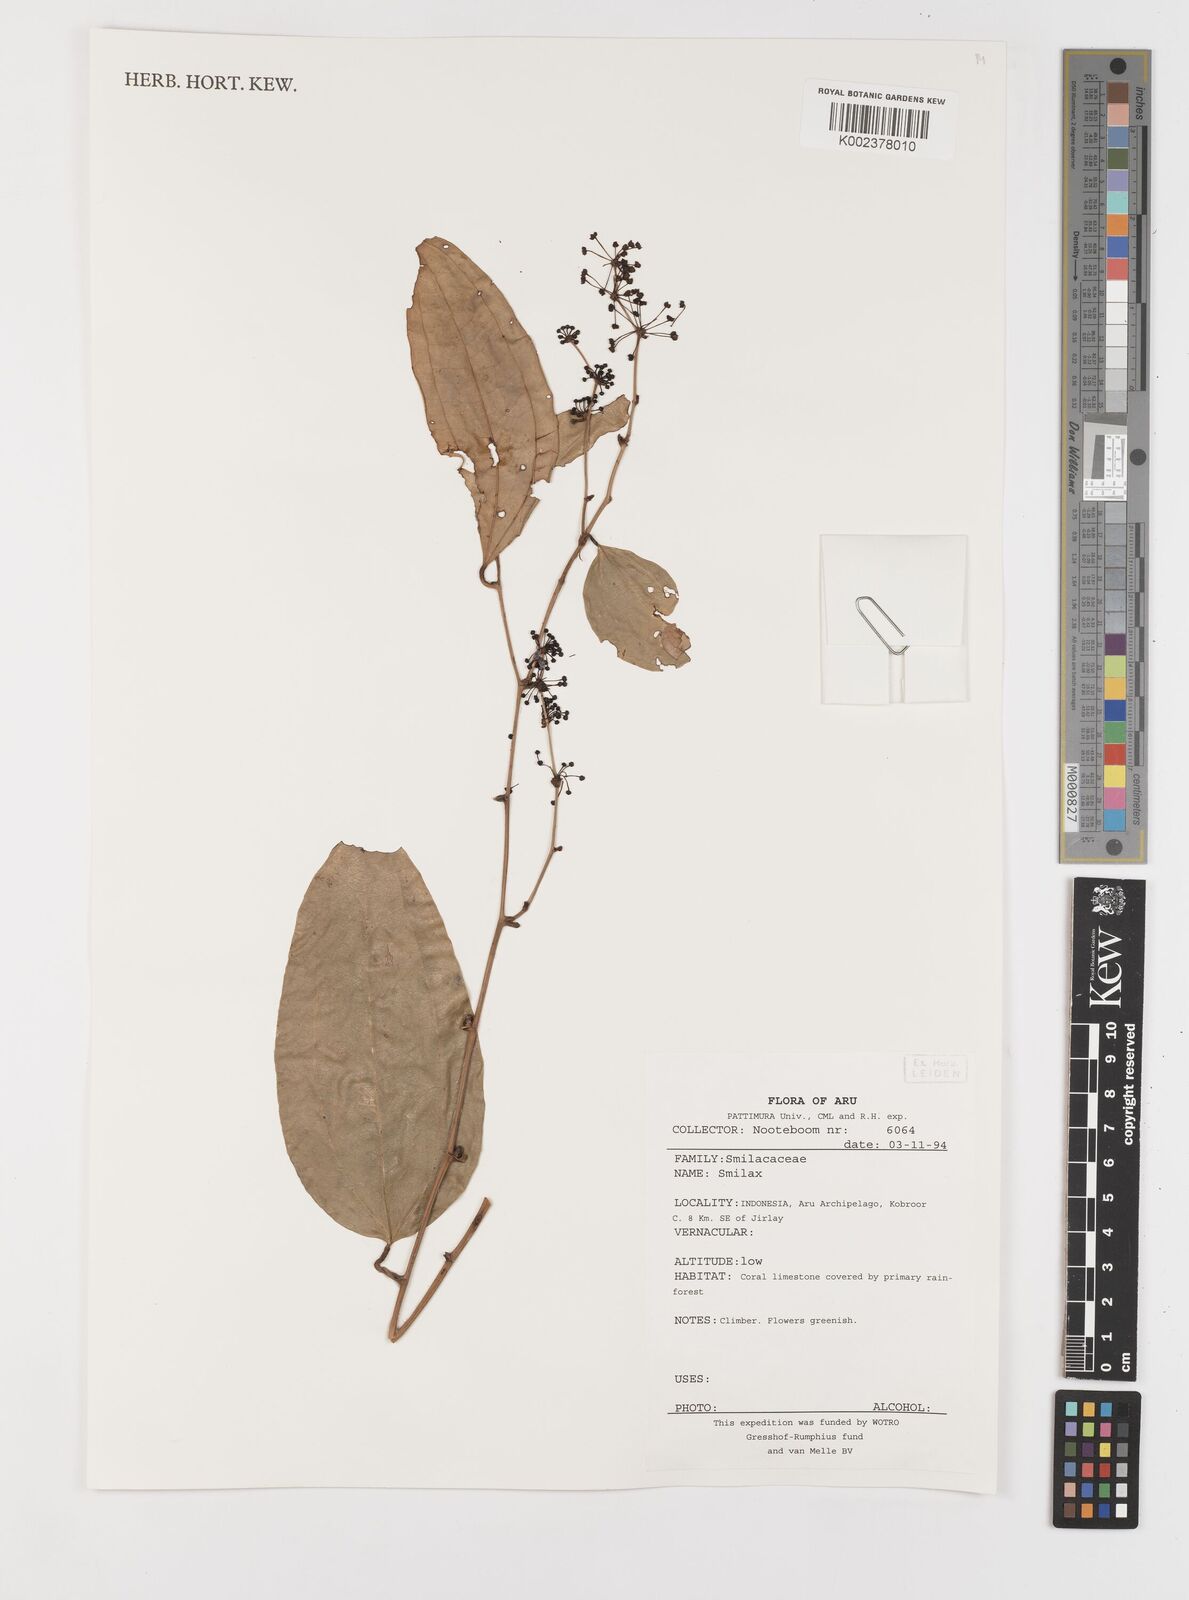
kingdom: Plantae
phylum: Tracheophyta
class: Liliopsida
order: Liliales
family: Smilacaceae
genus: Smilax
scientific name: Smilax
